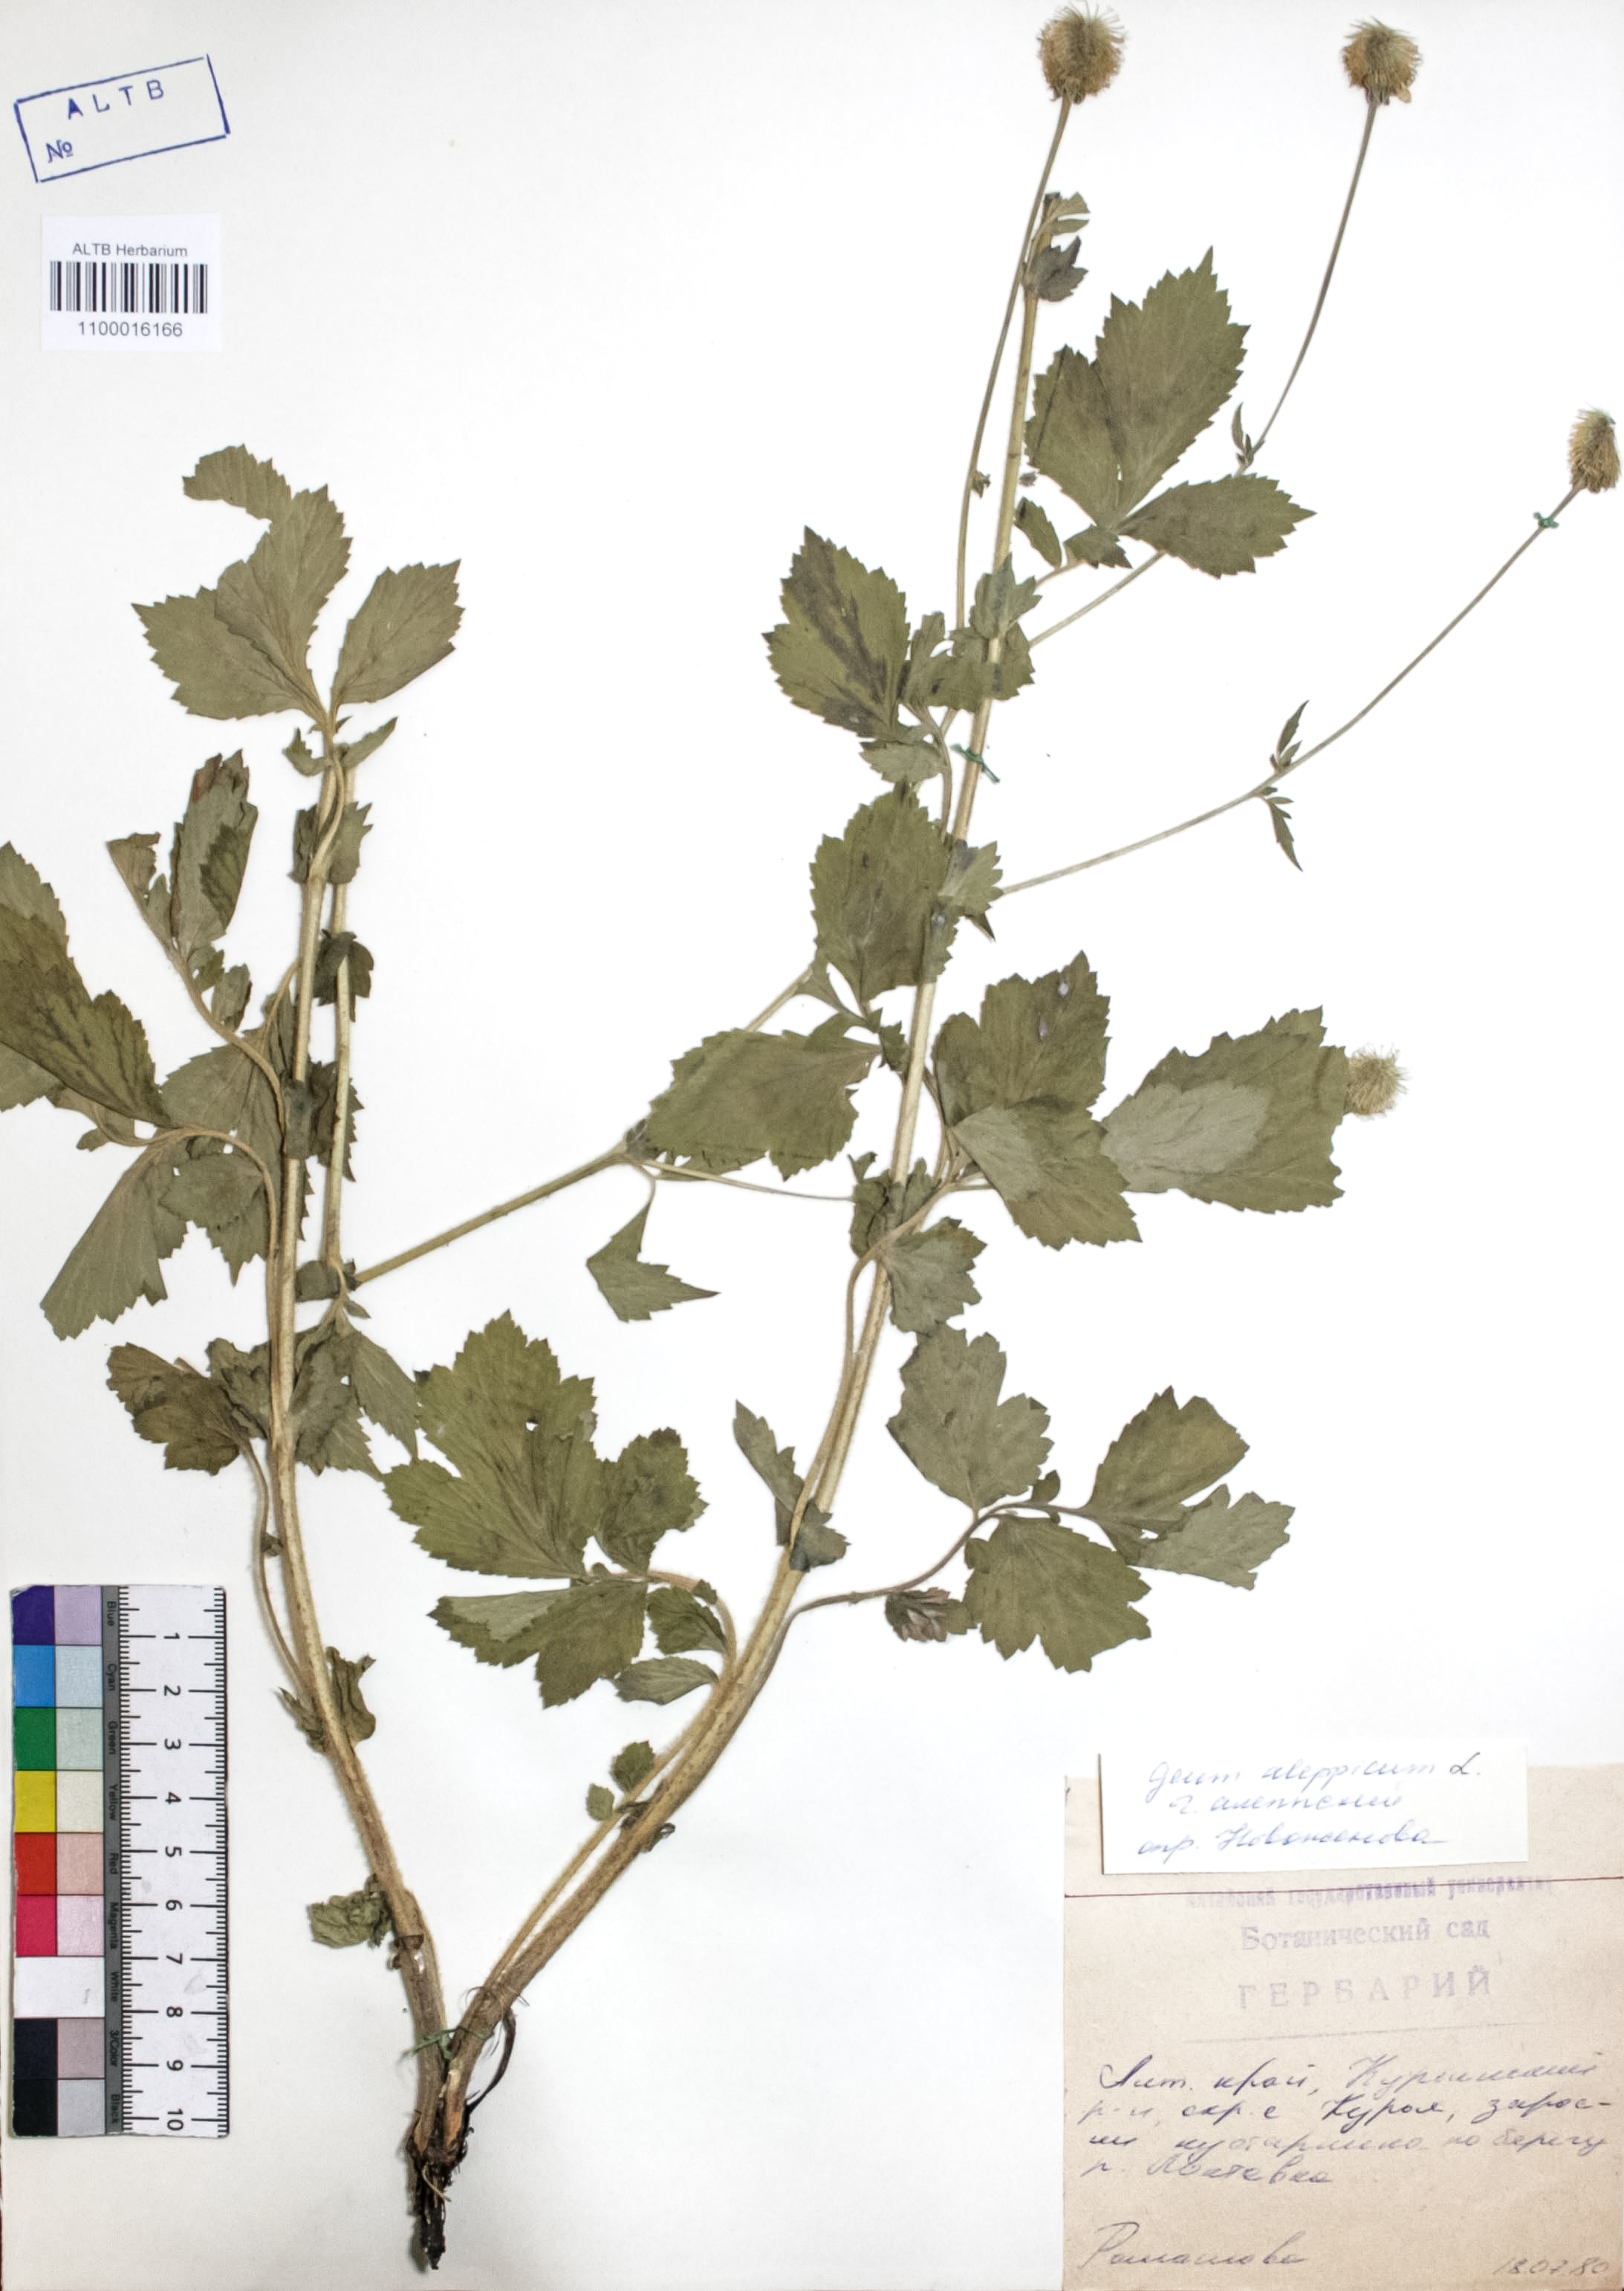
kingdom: Plantae
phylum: Tracheophyta
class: Magnoliopsida
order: Rosales
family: Rosaceae
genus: Geum
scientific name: Geum aleppicum
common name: Yellow avens
